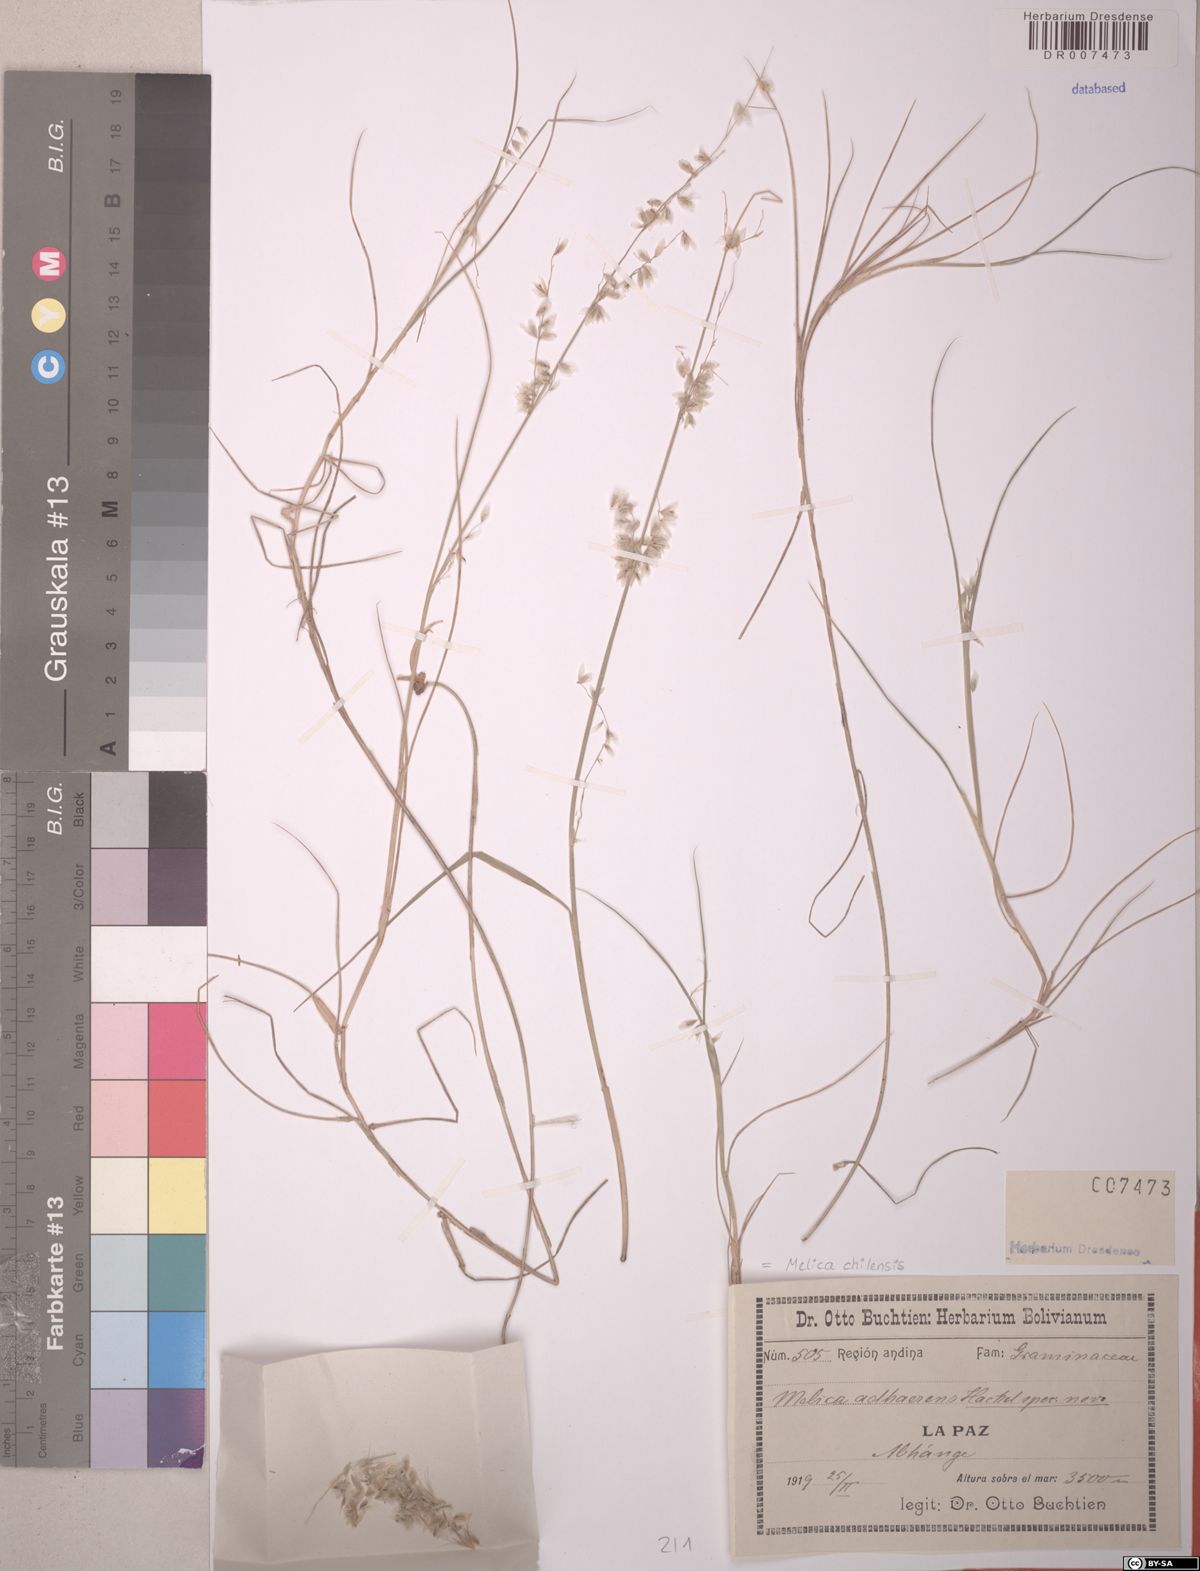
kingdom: Plantae
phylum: Tracheophyta
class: Liliopsida
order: Poales
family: Poaceae
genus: Melica
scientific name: Melica chilensis
